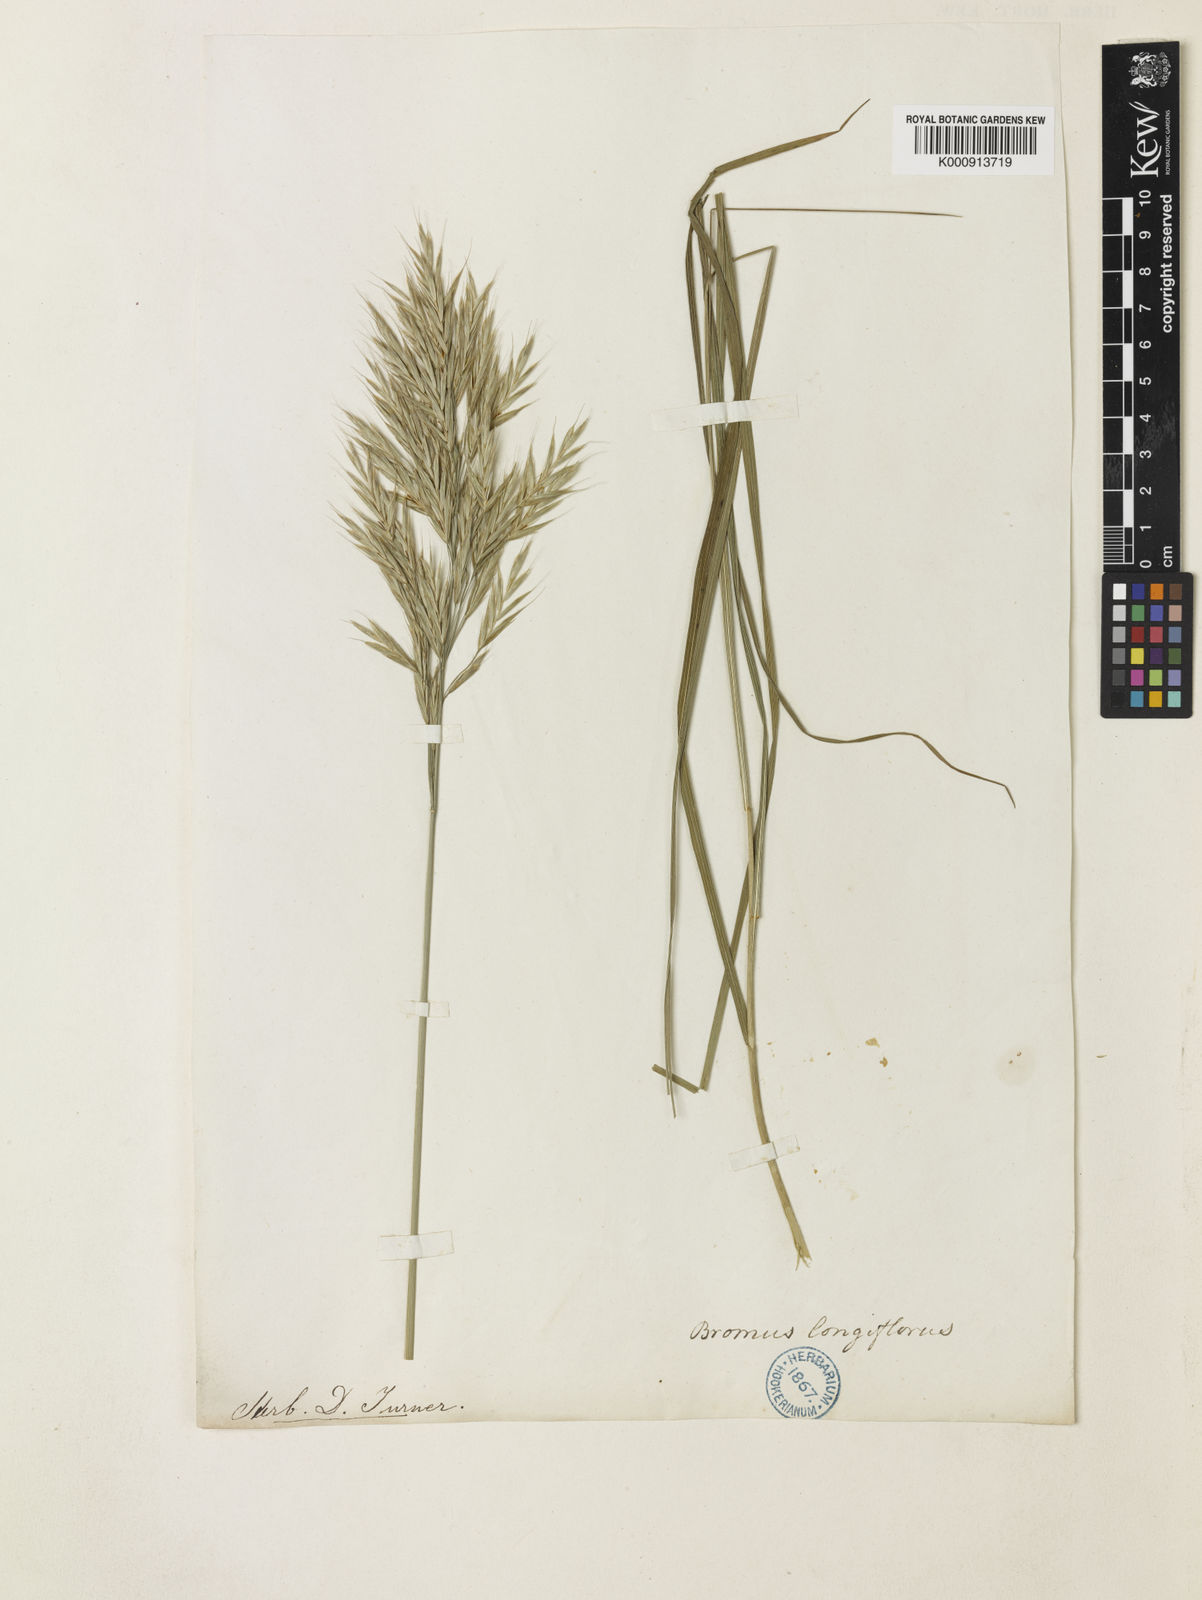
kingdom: Plantae
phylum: Tracheophyta
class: Liliopsida
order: Poales
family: Poaceae
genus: Bromus
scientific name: Bromus
